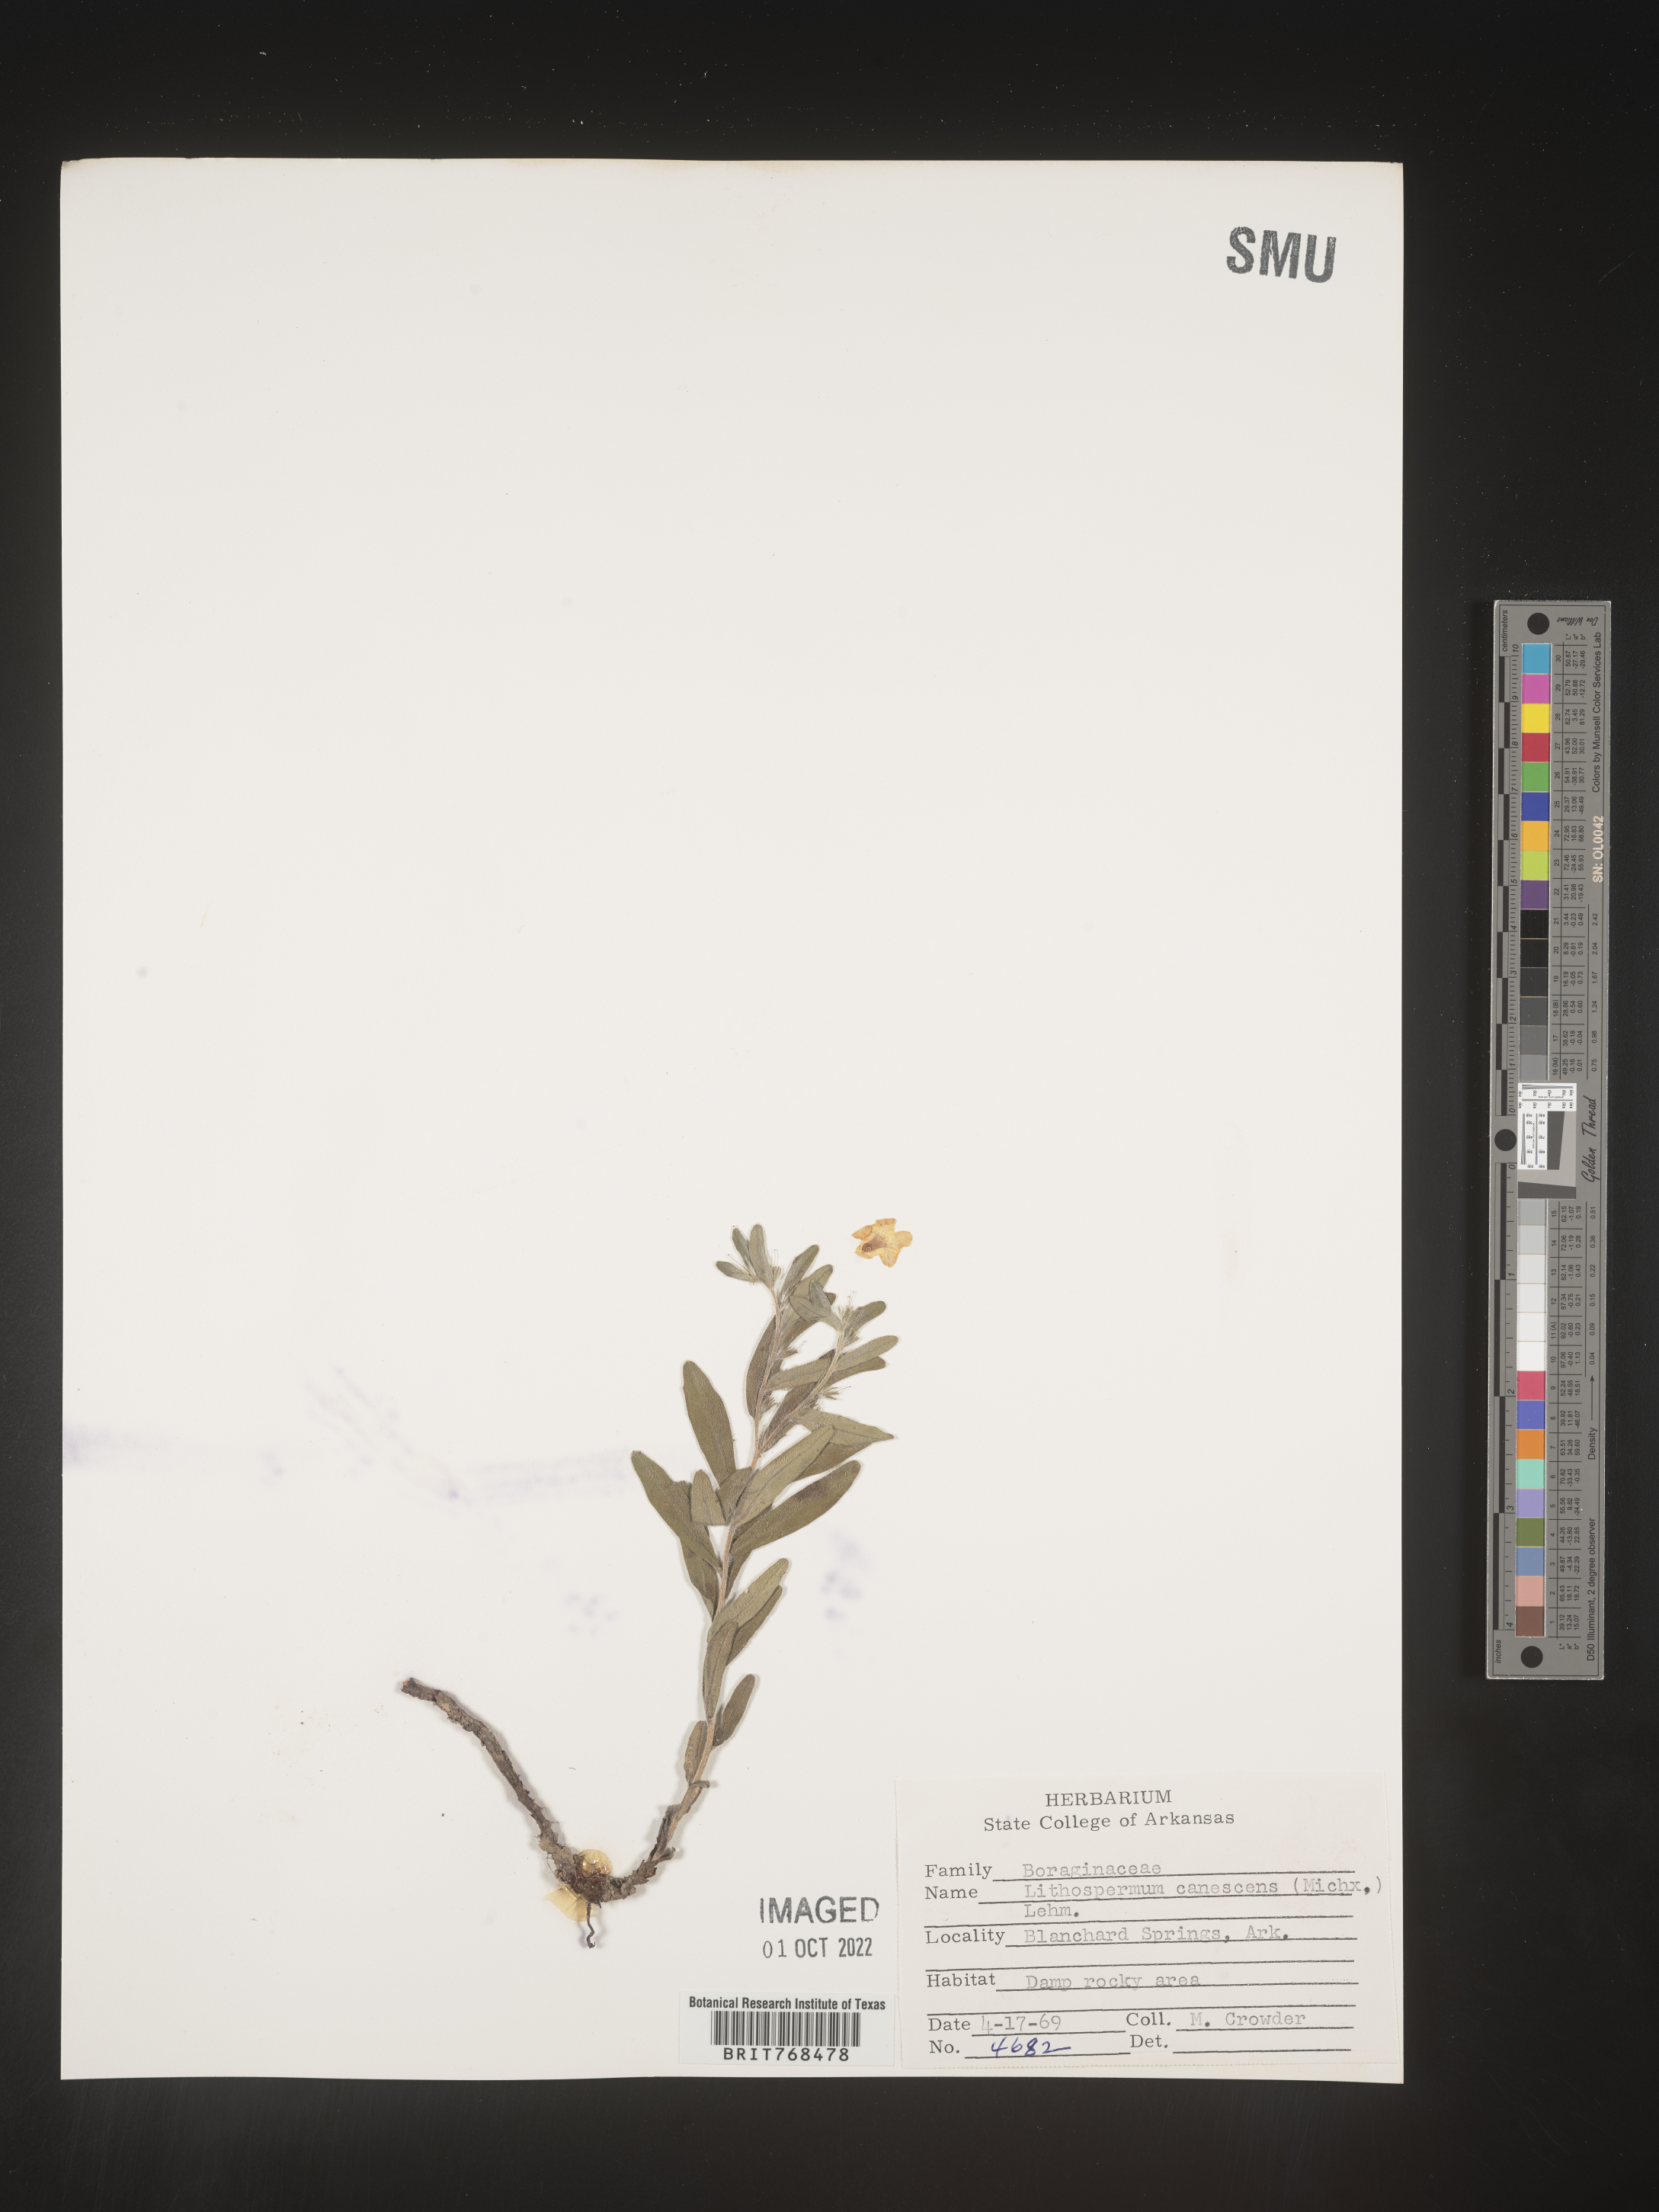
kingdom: Plantae
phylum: Tracheophyta
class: Magnoliopsida
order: Boraginales
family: Boraginaceae
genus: Lithospermum
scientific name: Lithospermum canescens
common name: Hoary puccoon
